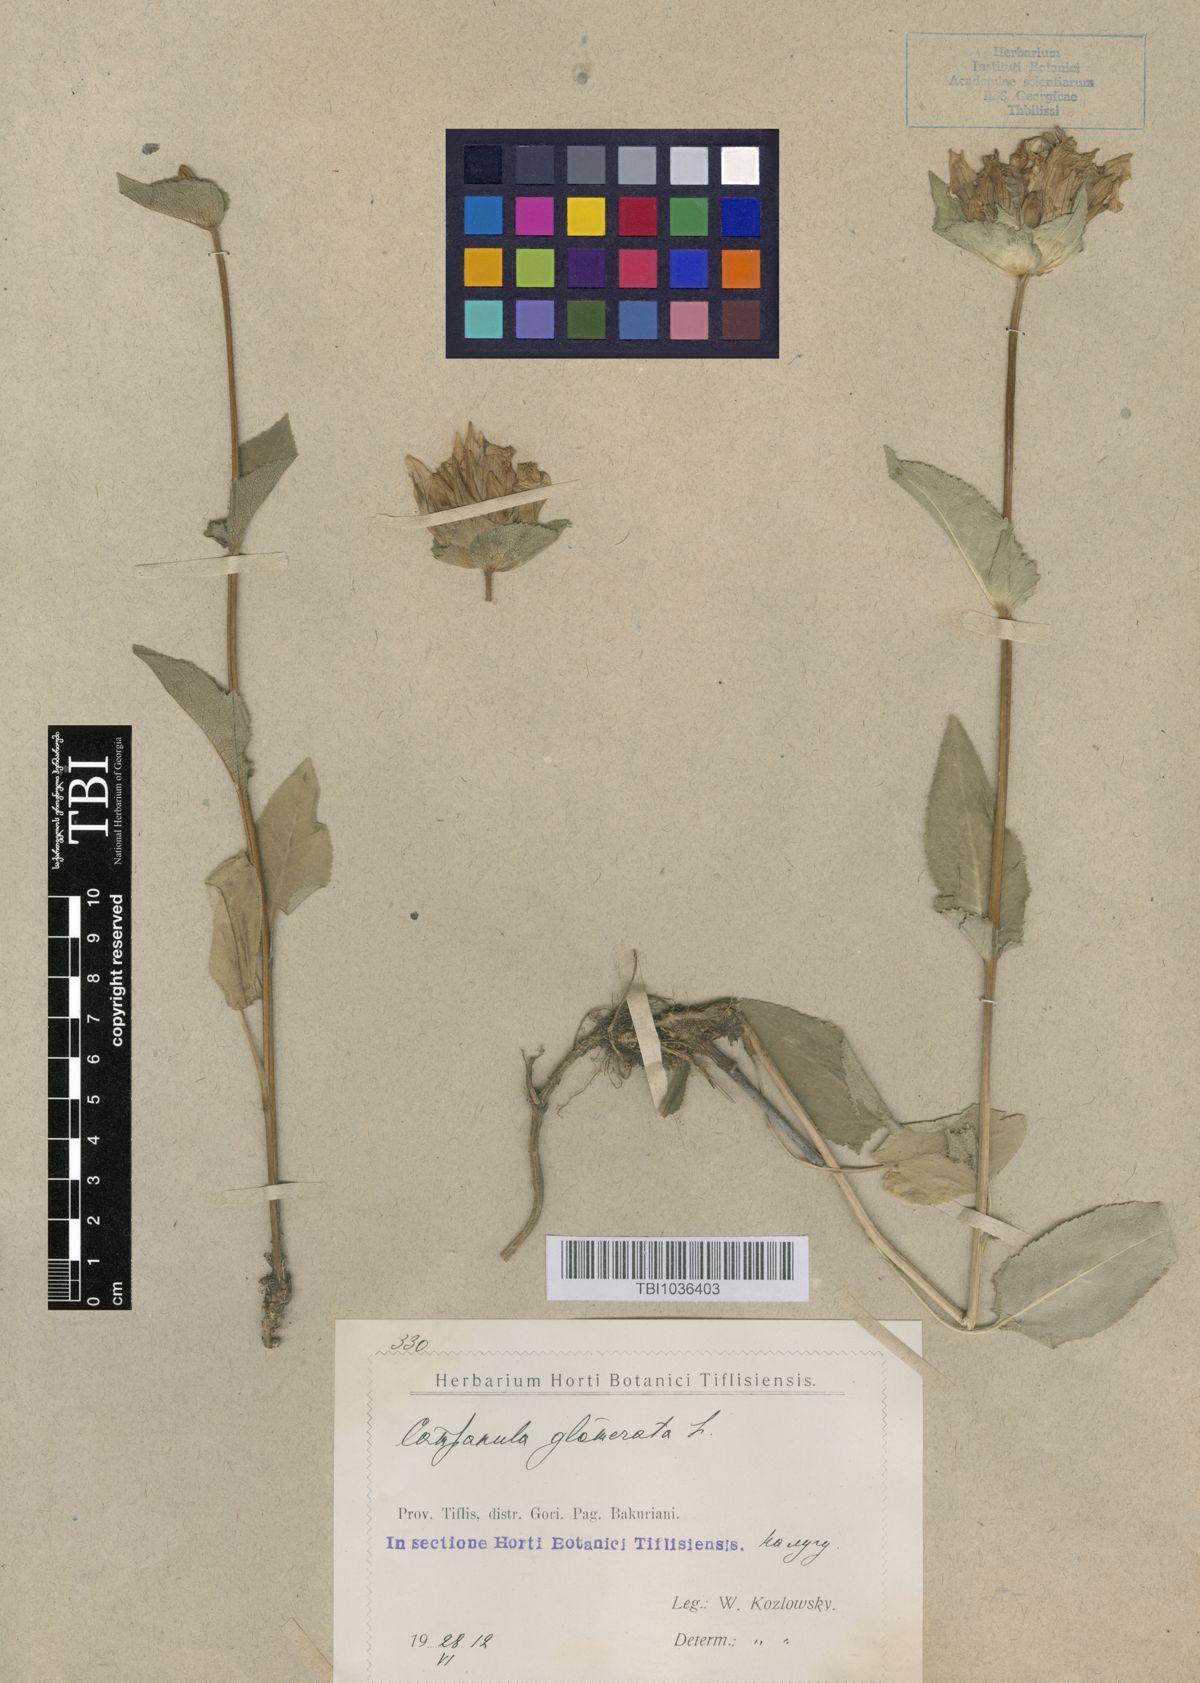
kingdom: Plantae
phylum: Tracheophyta
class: Magnoliopsida
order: Asterales
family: Campanulaceae
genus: Campanula
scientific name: Campanula glomerata
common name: Clustered bellflower
